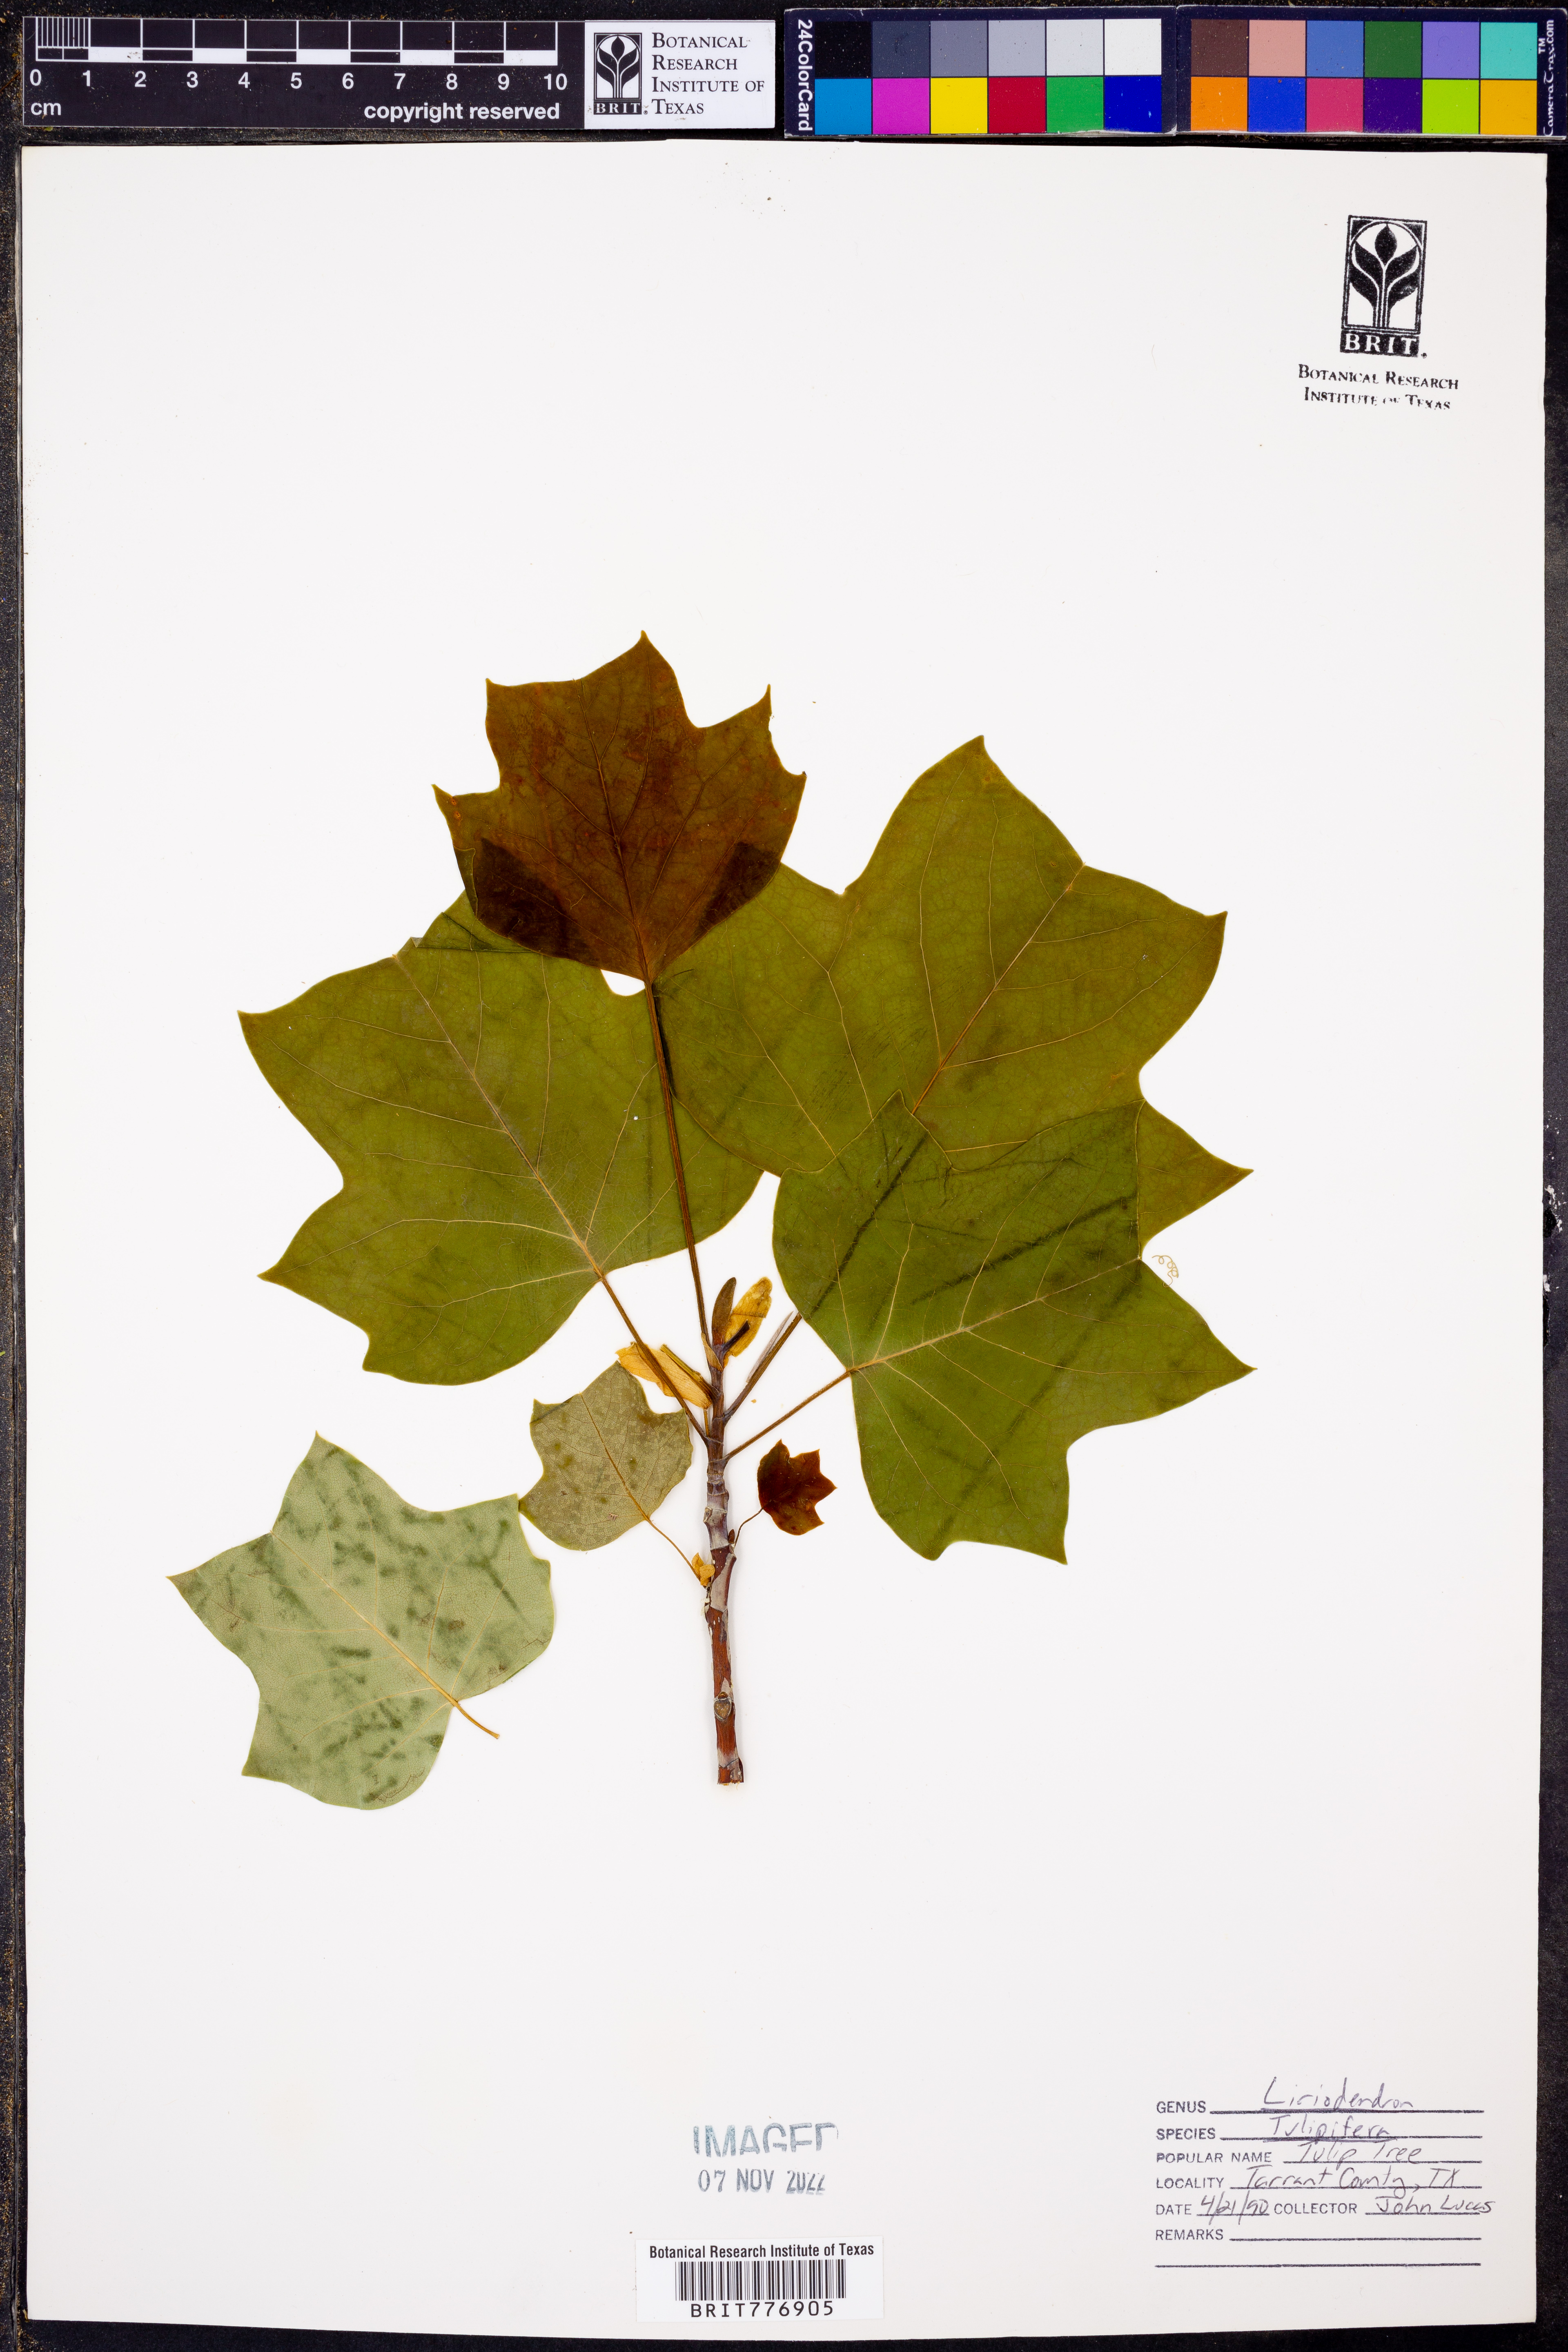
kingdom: Plantae
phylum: Tracheophyta
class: Magnoliopsida
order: Magnoliales
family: Magnoliaceae
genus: Liriodendron
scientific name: Liriodendron tulipifera
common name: Tulip tree
